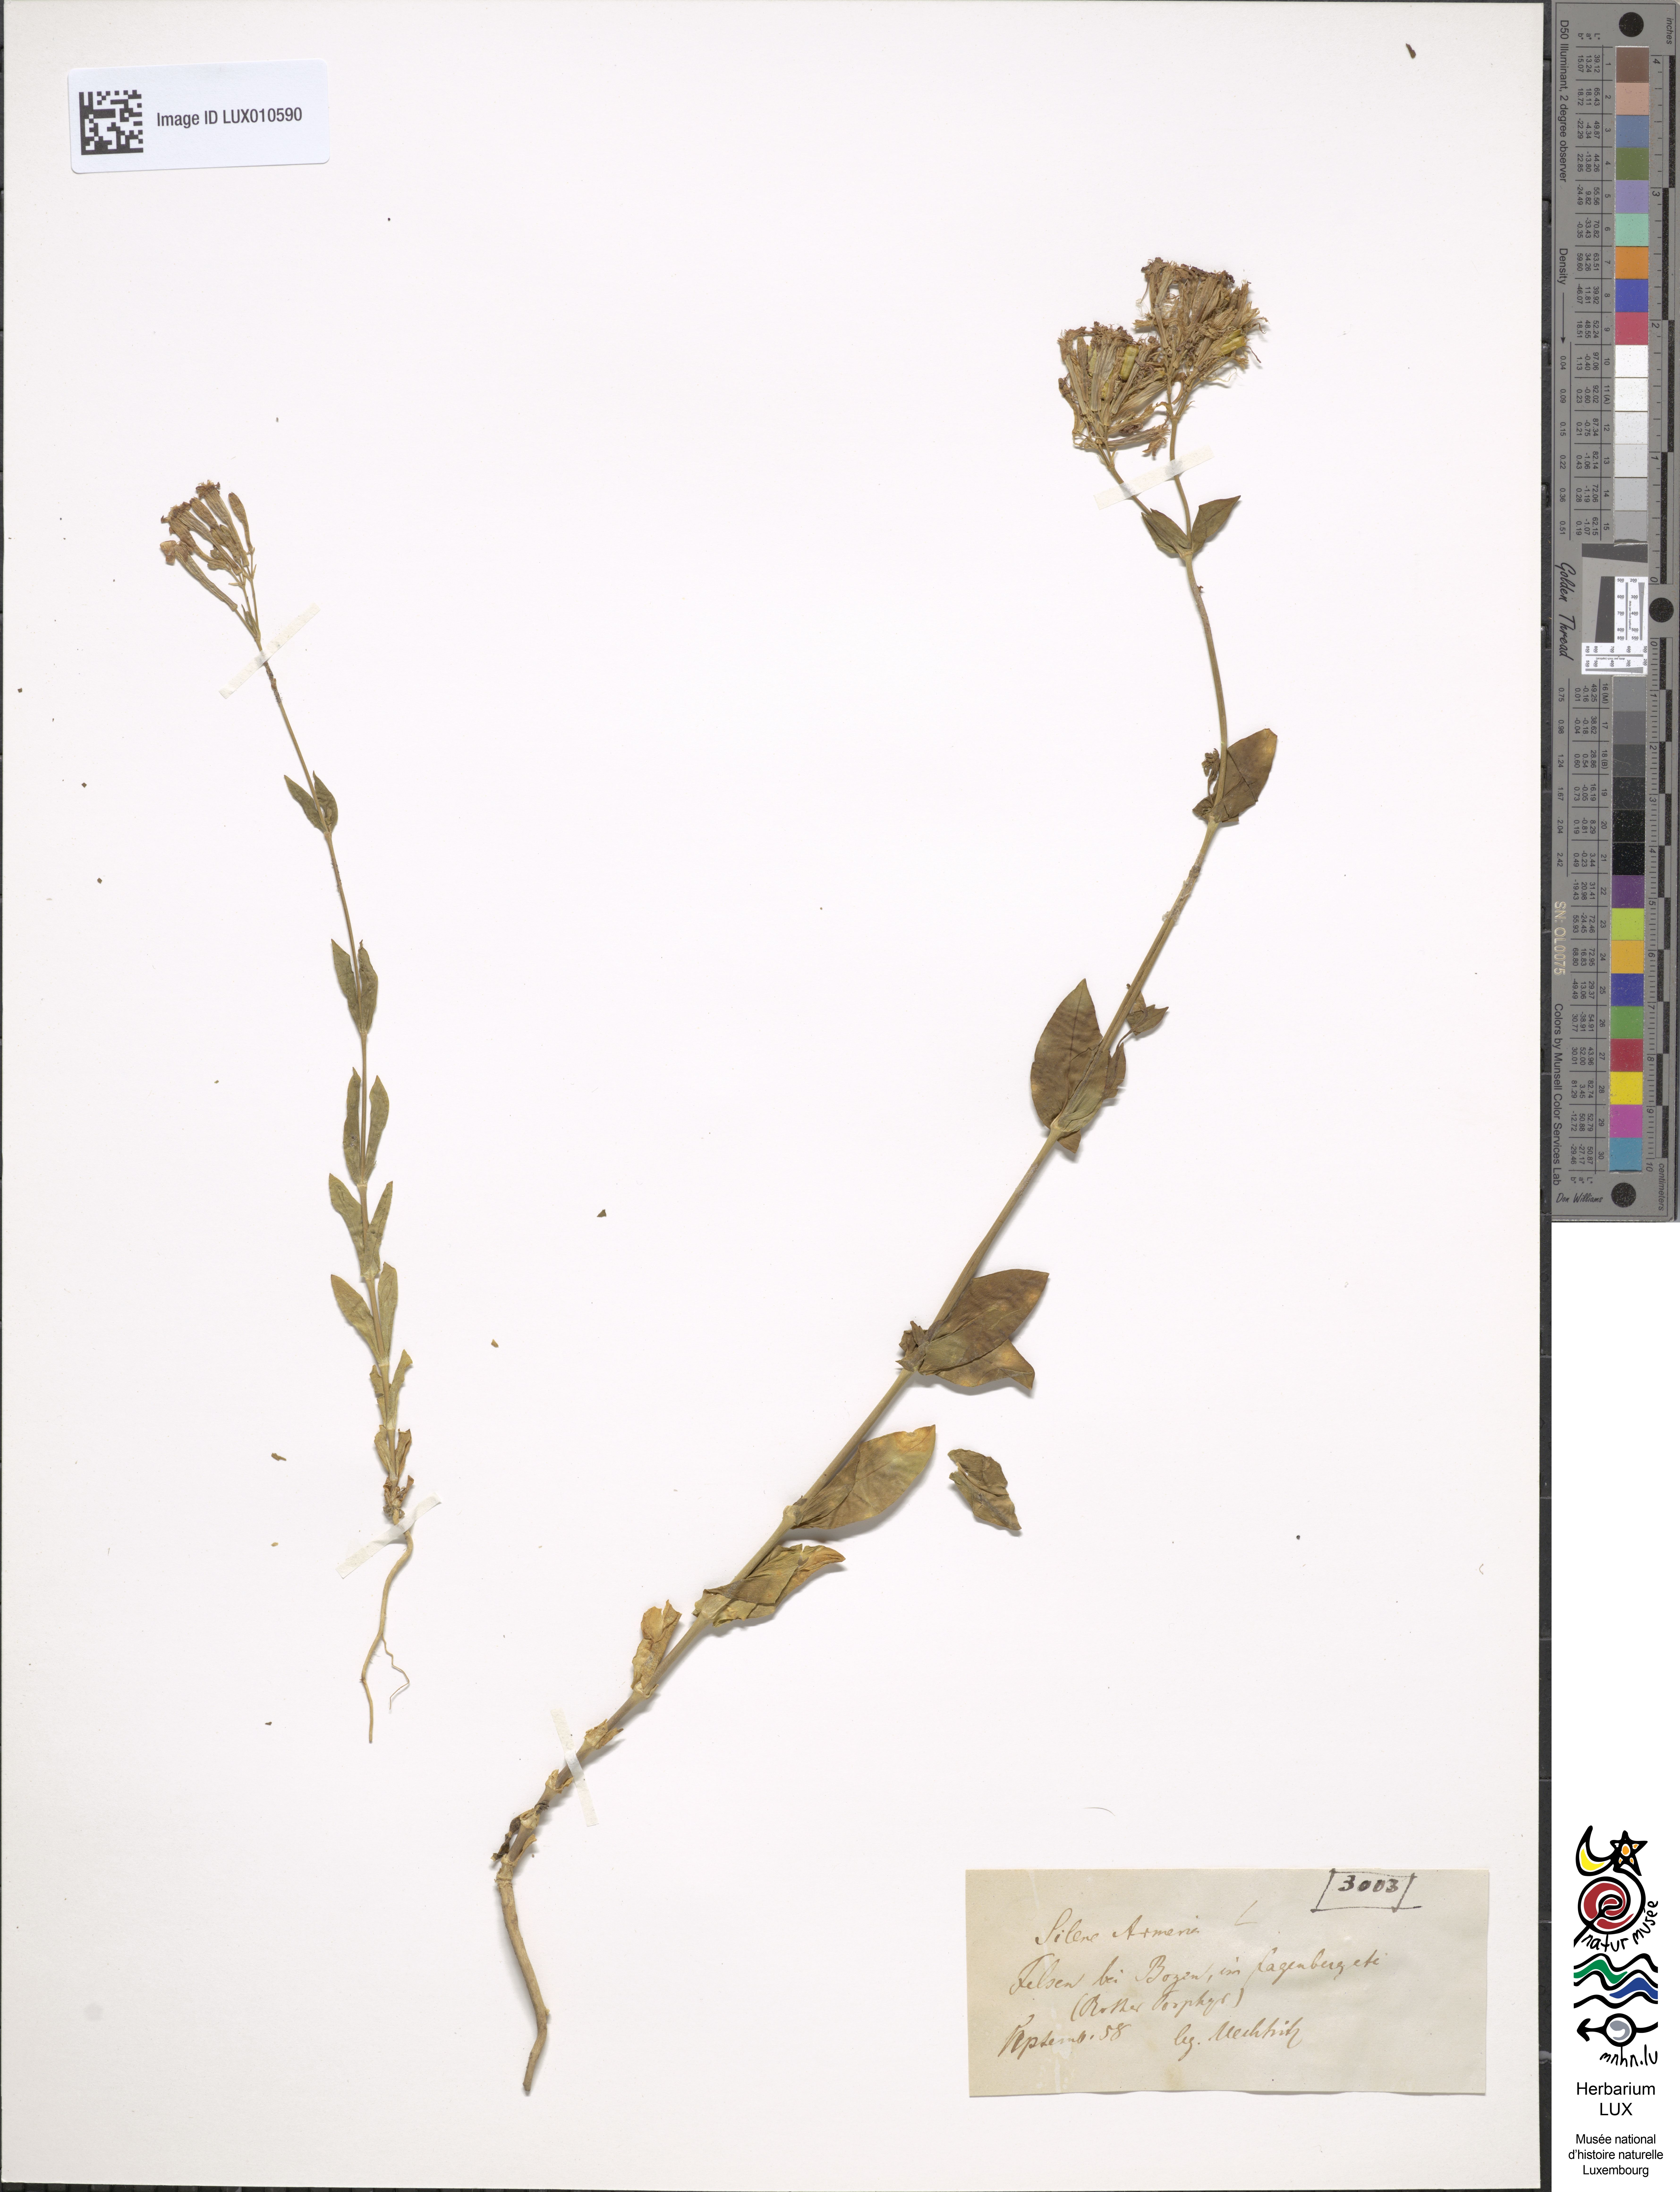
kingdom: Plantae
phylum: Tracheophyta
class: Magnoliopsida
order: Caryophyllales
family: Caryophyllaceae
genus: Atocion
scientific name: Atocion armeria
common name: Sweet william catchfly
